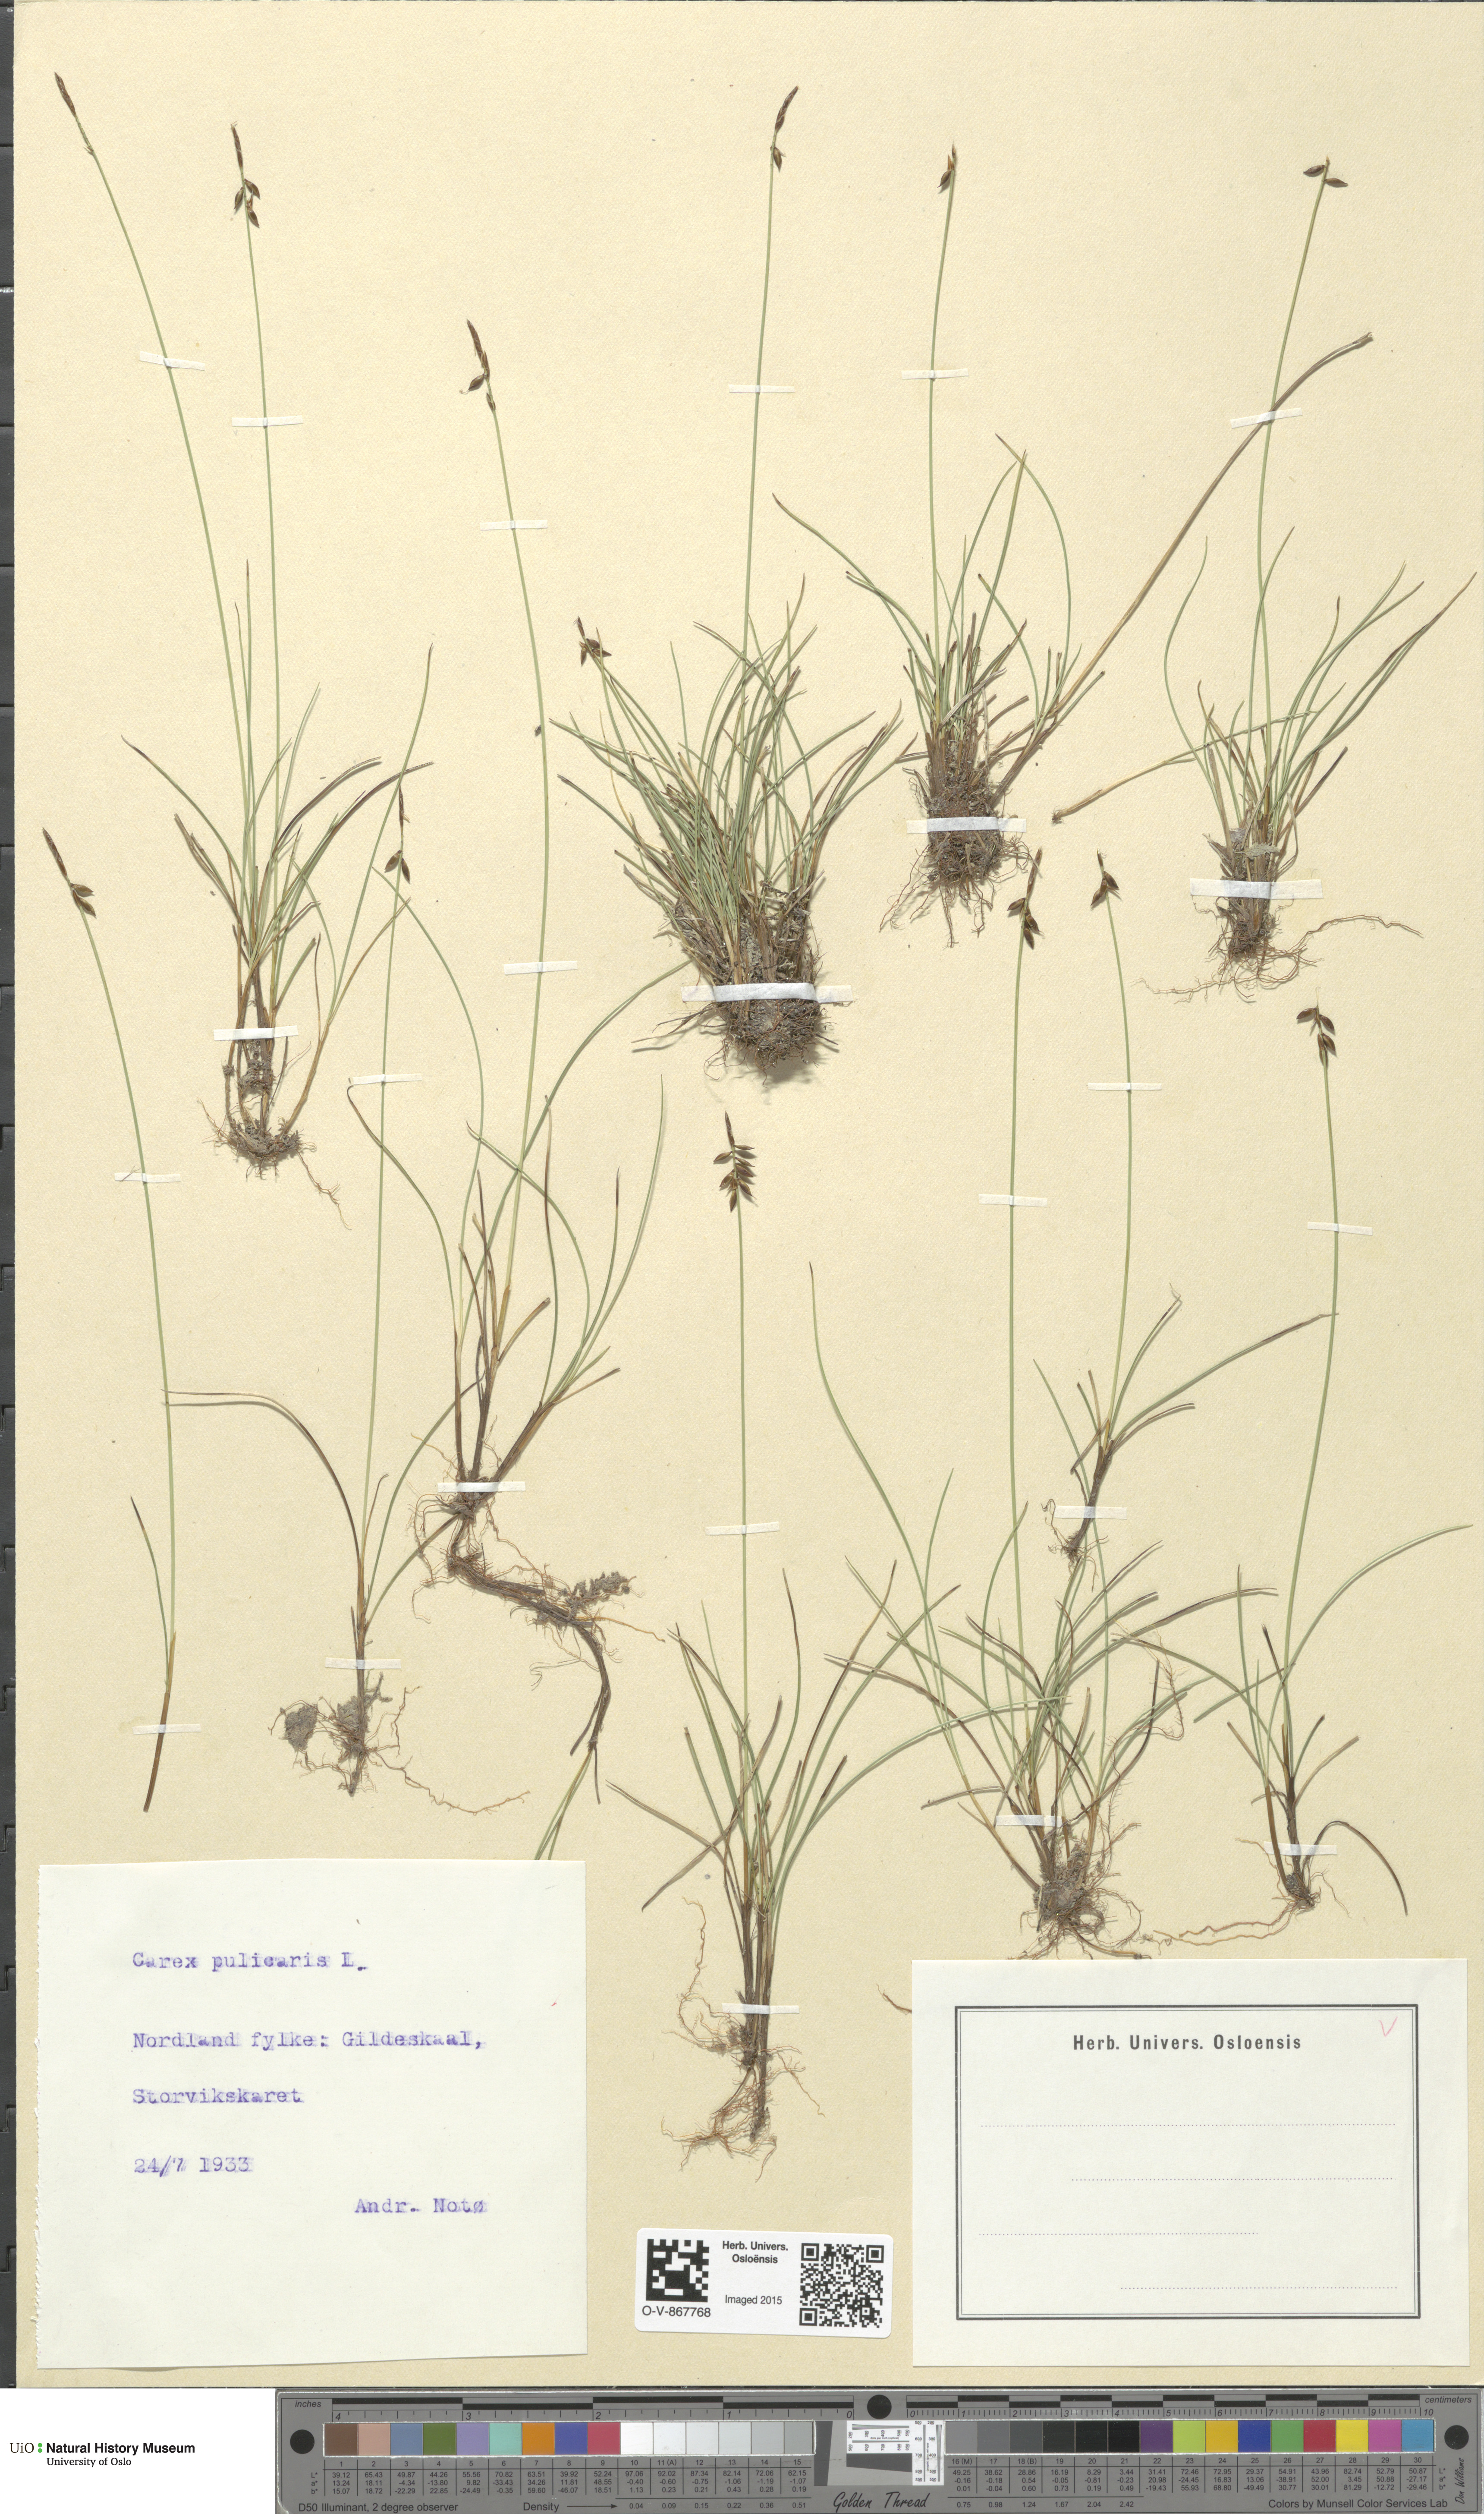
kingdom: Plantae
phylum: Tracheophyta
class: Liliopsida
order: Poales
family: Cyperaceae
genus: Carex
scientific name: Carex pulicaris
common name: Flea sedge
